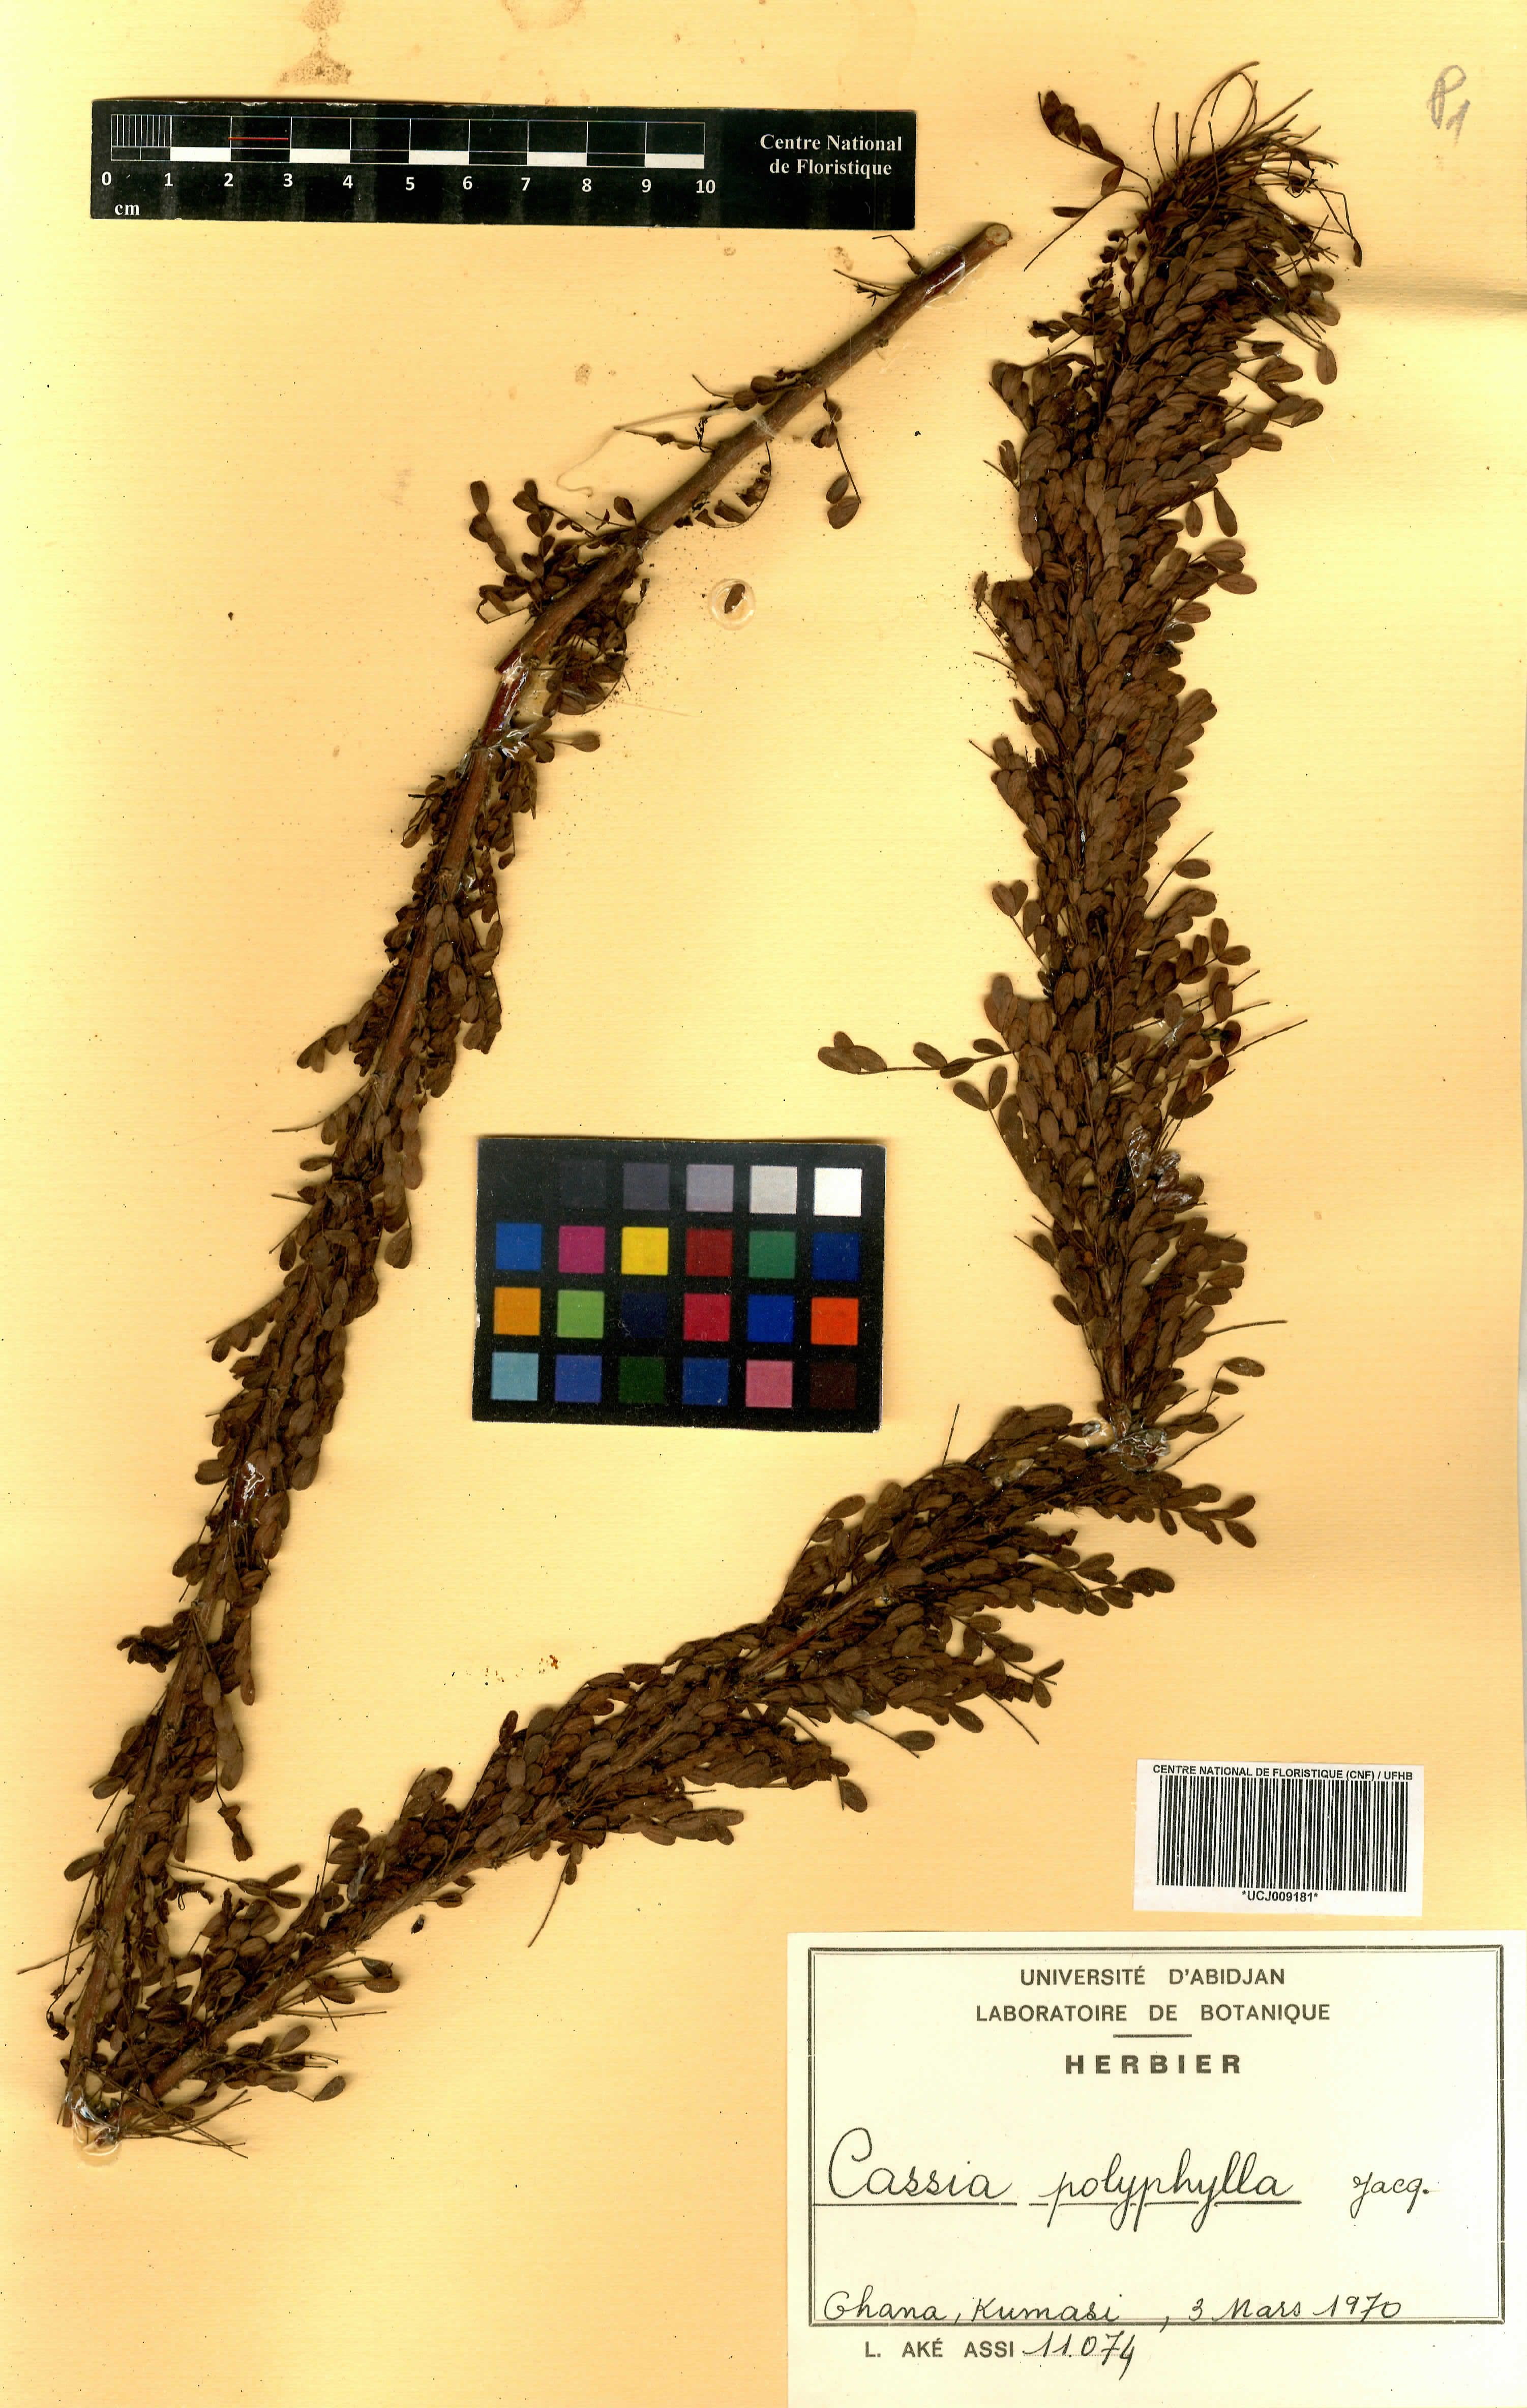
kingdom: Plantae
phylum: Tracheophyta
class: Magnoliopsida
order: Fabales
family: Fabaceae
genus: Senna
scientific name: Senna polyphylla
